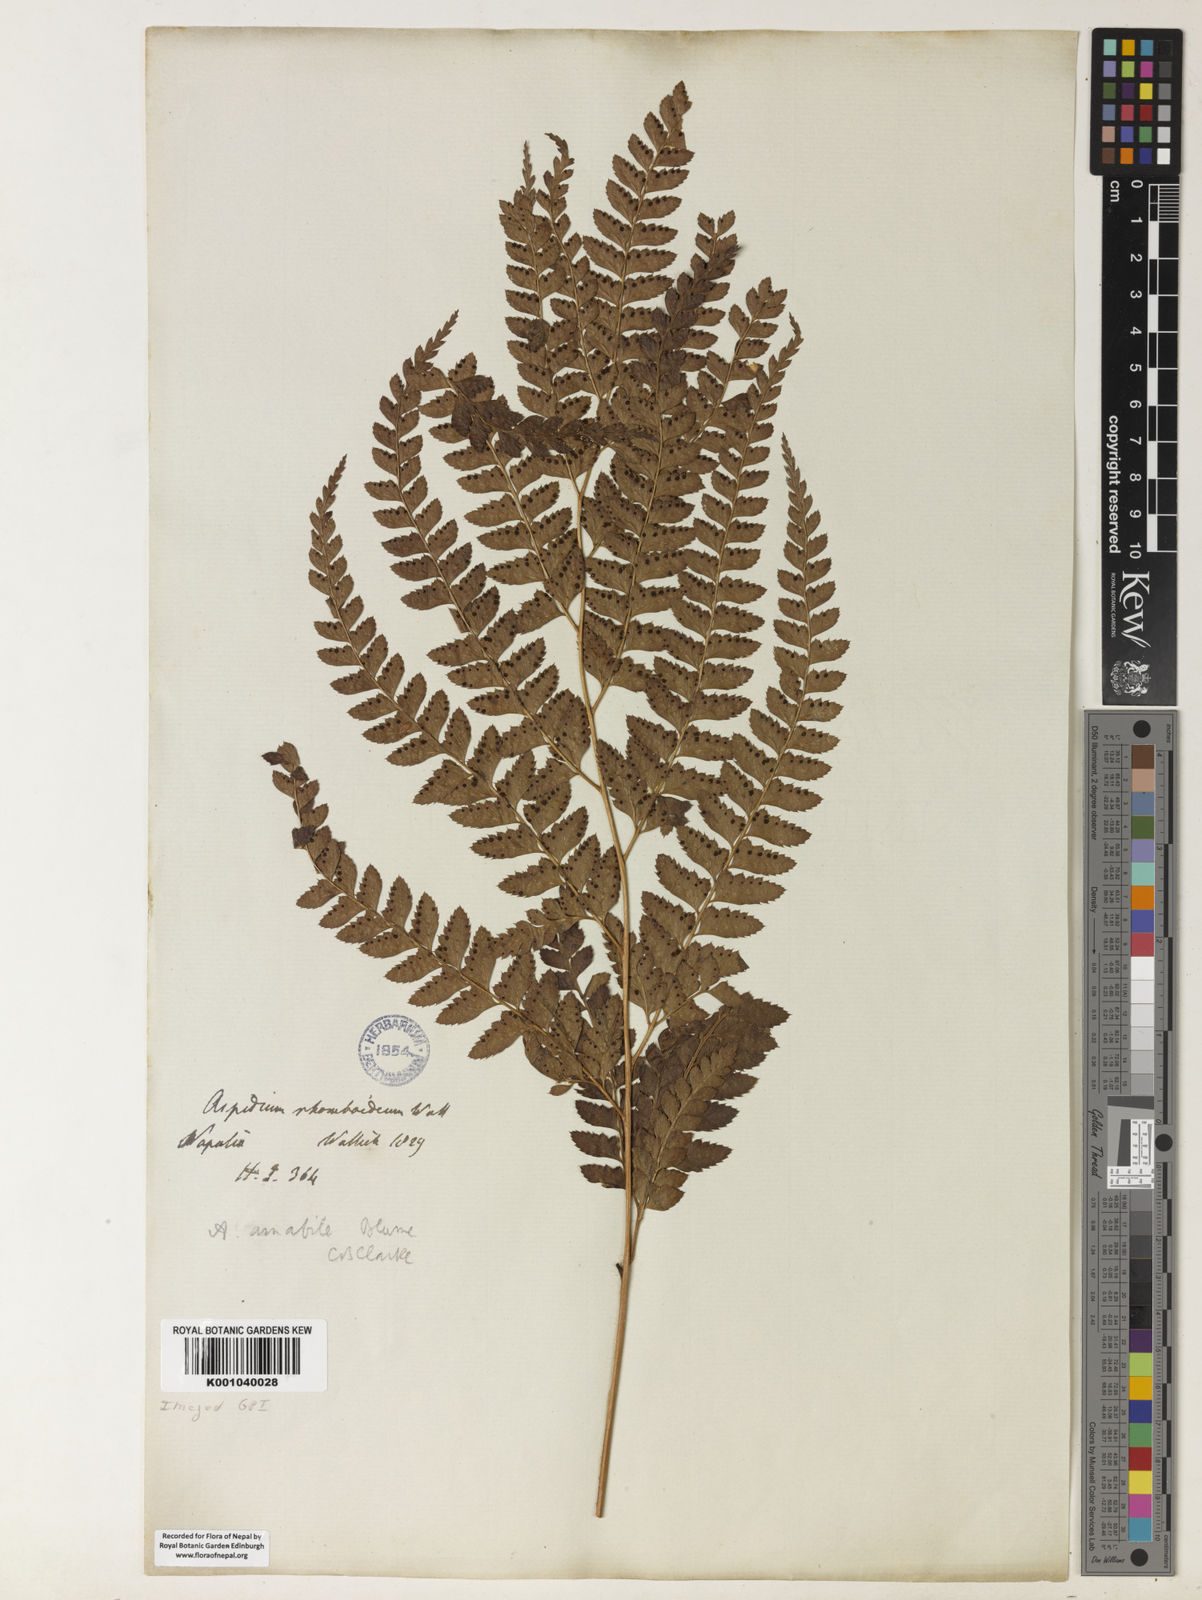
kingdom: Plantae
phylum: Tracheophyta
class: Polypodiopsida
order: Polypodiales
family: Dryopteridaceae
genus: Arachniodes
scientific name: Arachniodes amabilis
